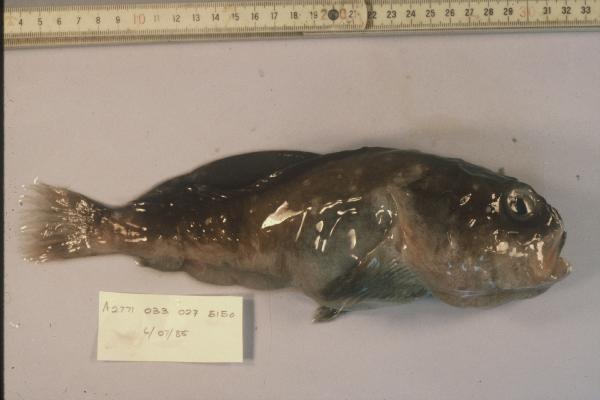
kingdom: Animalia
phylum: Chordata
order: Scorpaeniformes
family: Psychrolutidae
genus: Cottunculus
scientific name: Cottunculus
